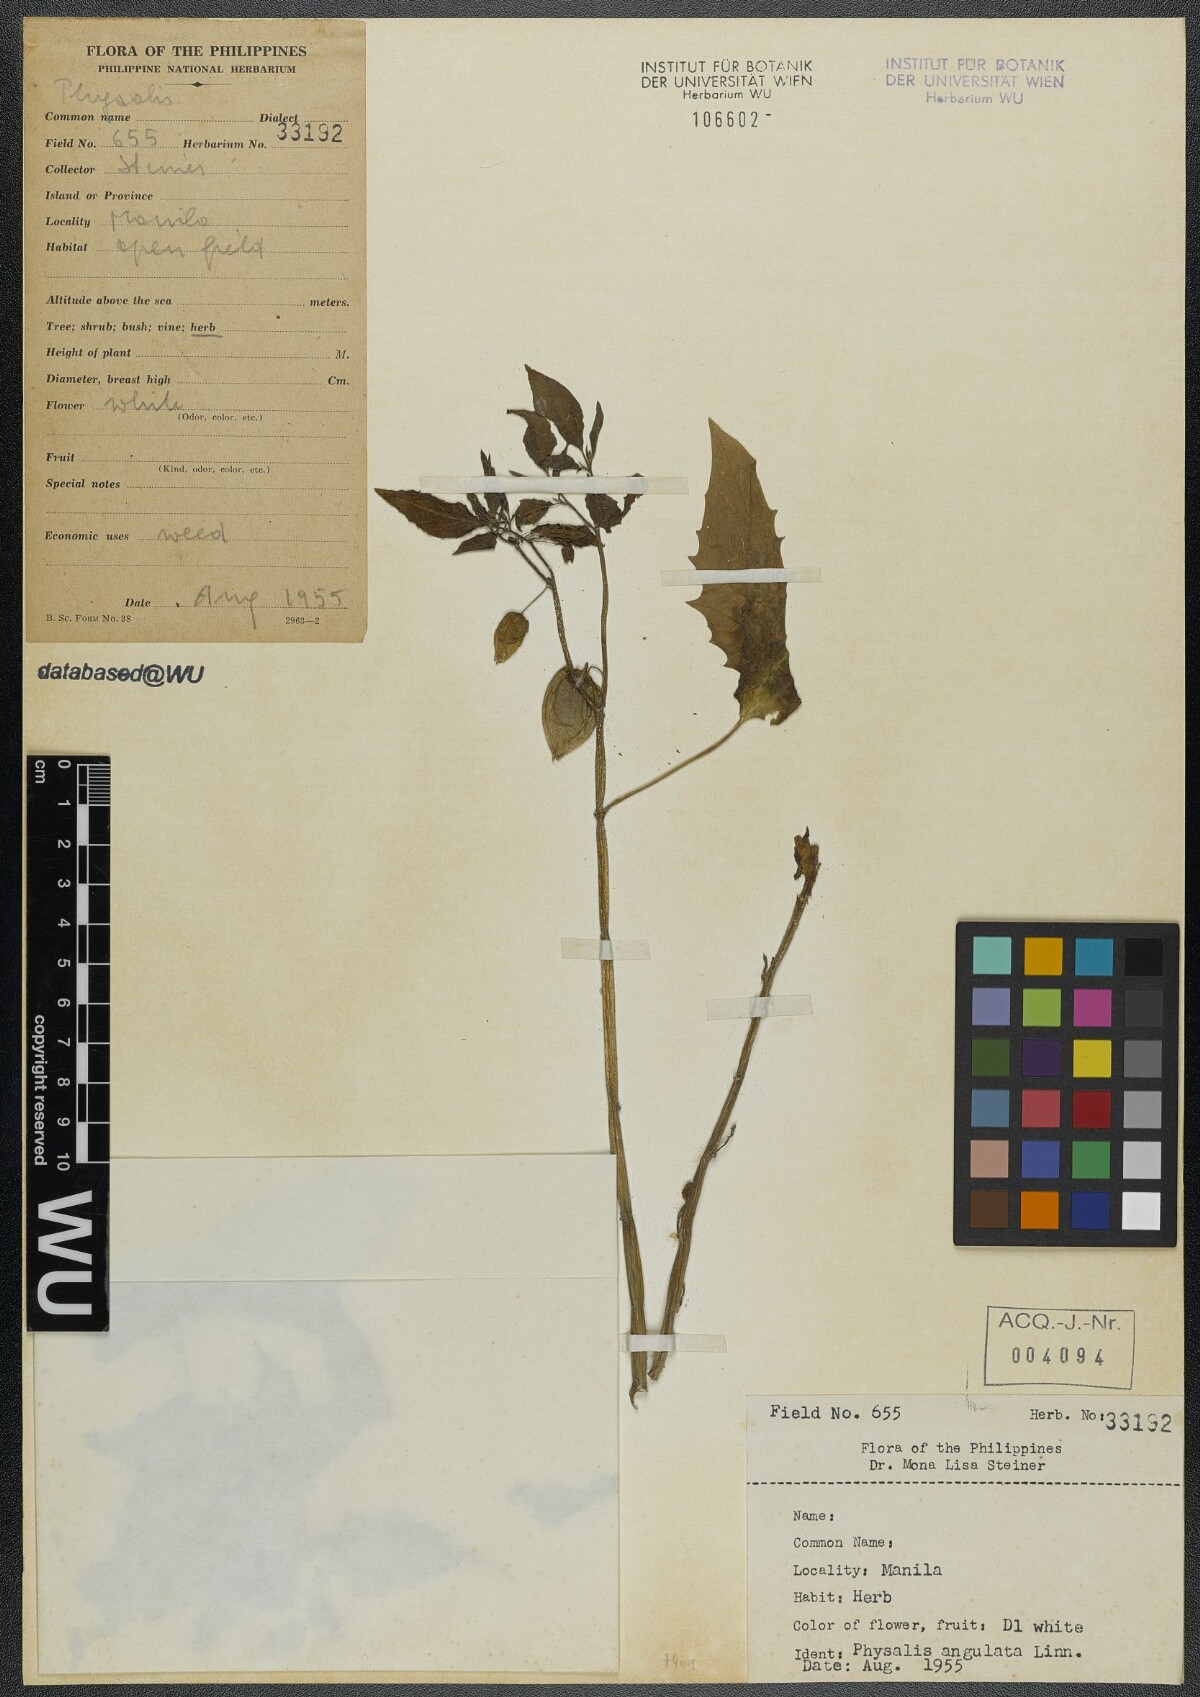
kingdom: Plantae
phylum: Tracheophyta
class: Magnoliopsida
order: Solanales
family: Solanaceae
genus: Physalis
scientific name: Physalis angulata
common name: Angular winter-cherry
